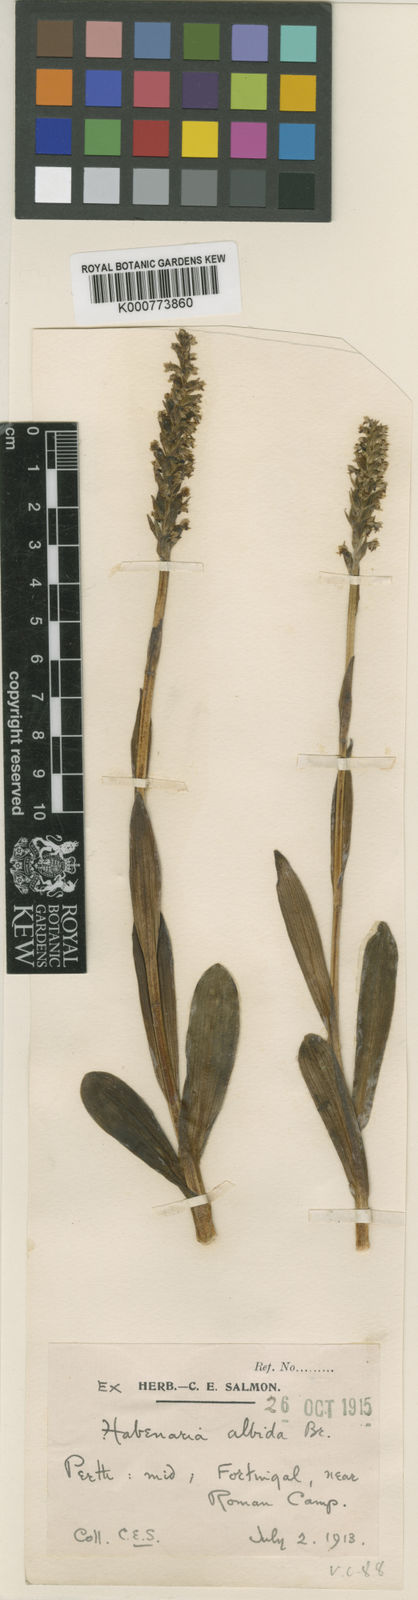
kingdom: Plantae
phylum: Tracheophyta
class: Liliopsida
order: Asparagales
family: Orchidaceae
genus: Pseudorchis
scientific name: Pseudorchis
